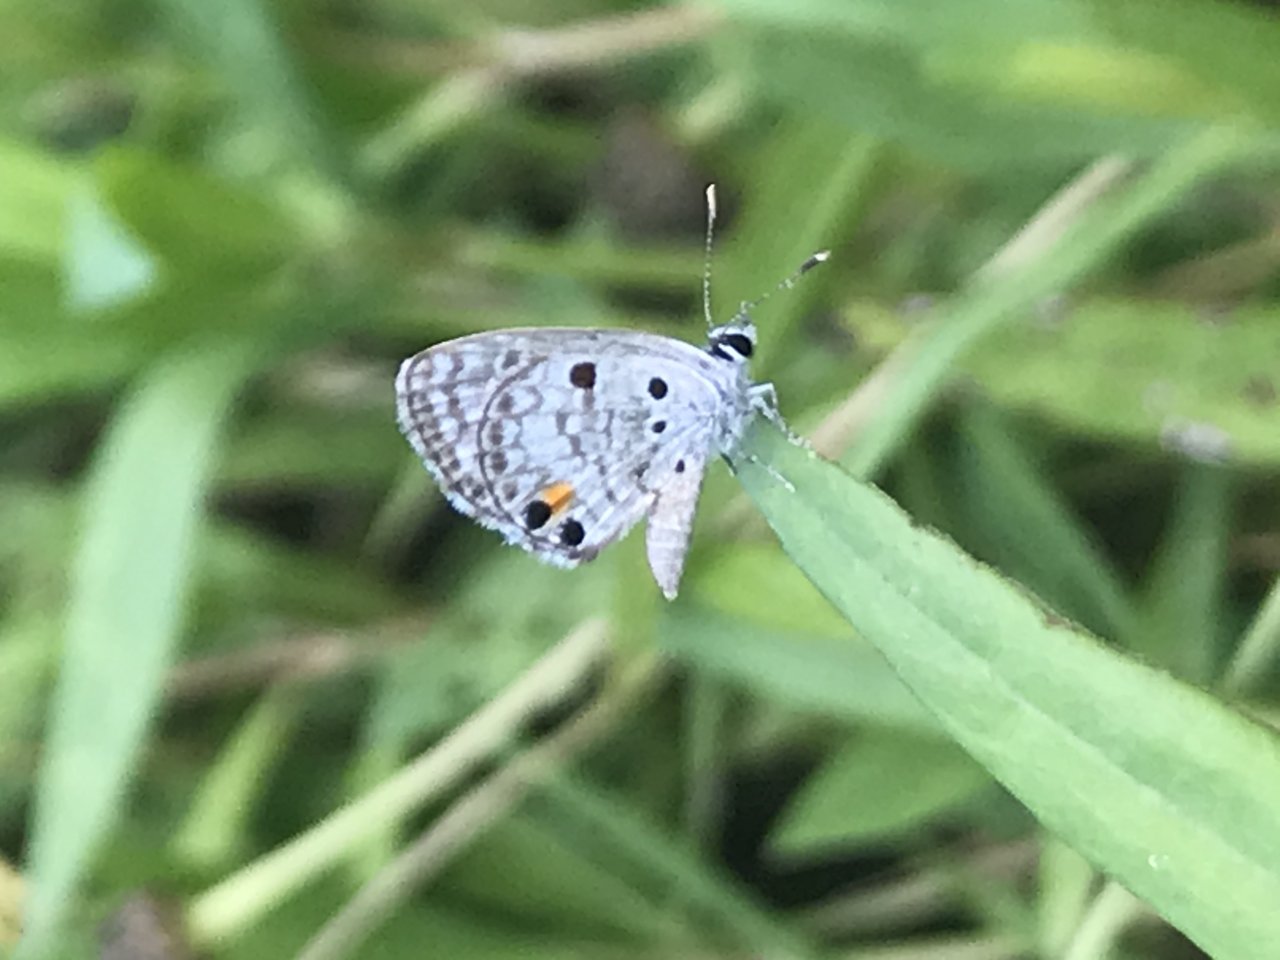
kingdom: Animalia
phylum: Arthropoda
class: Insecta
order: Lepidoptera
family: Lycaenidae
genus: Cyclargus
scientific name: Cyclargus ammon
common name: Nickerbean Blue
